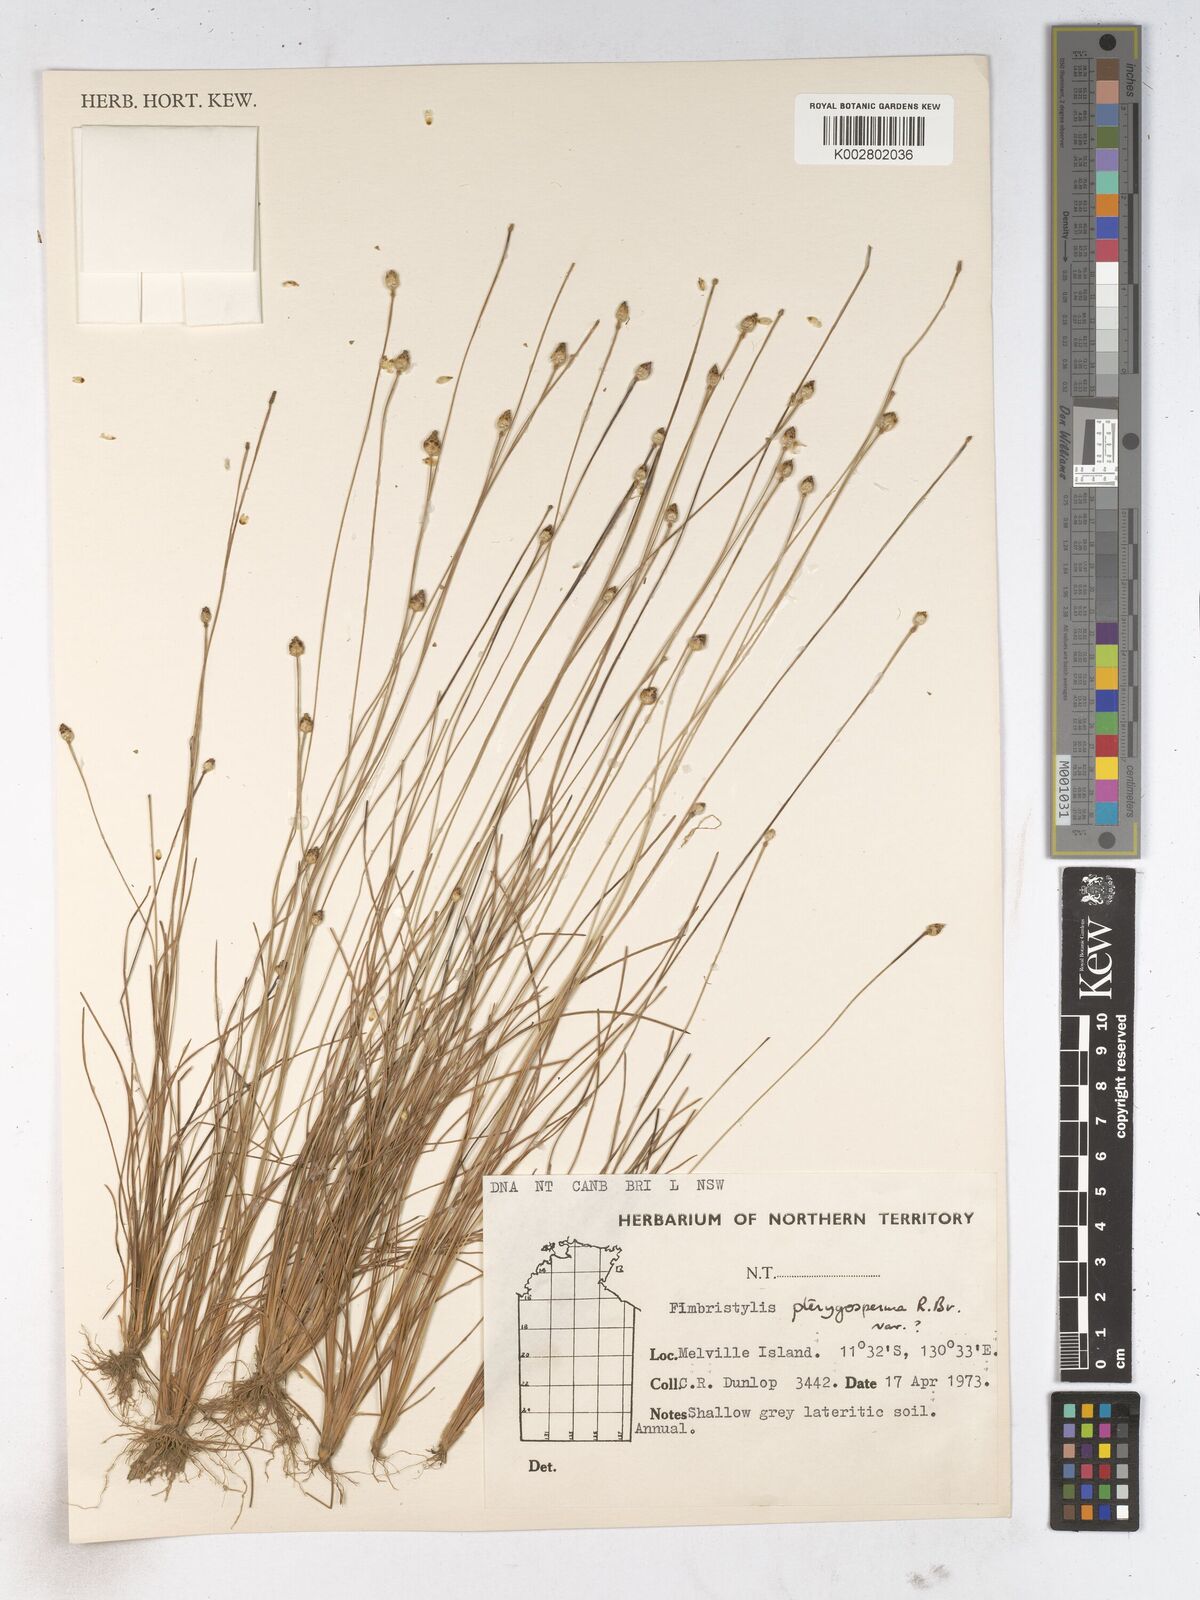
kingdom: Plantae
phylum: Tracheophyta
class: Liliopsida
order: Poales
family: Cyperaceae
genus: Fimbristylis
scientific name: Fimbristylis pterigosperma
